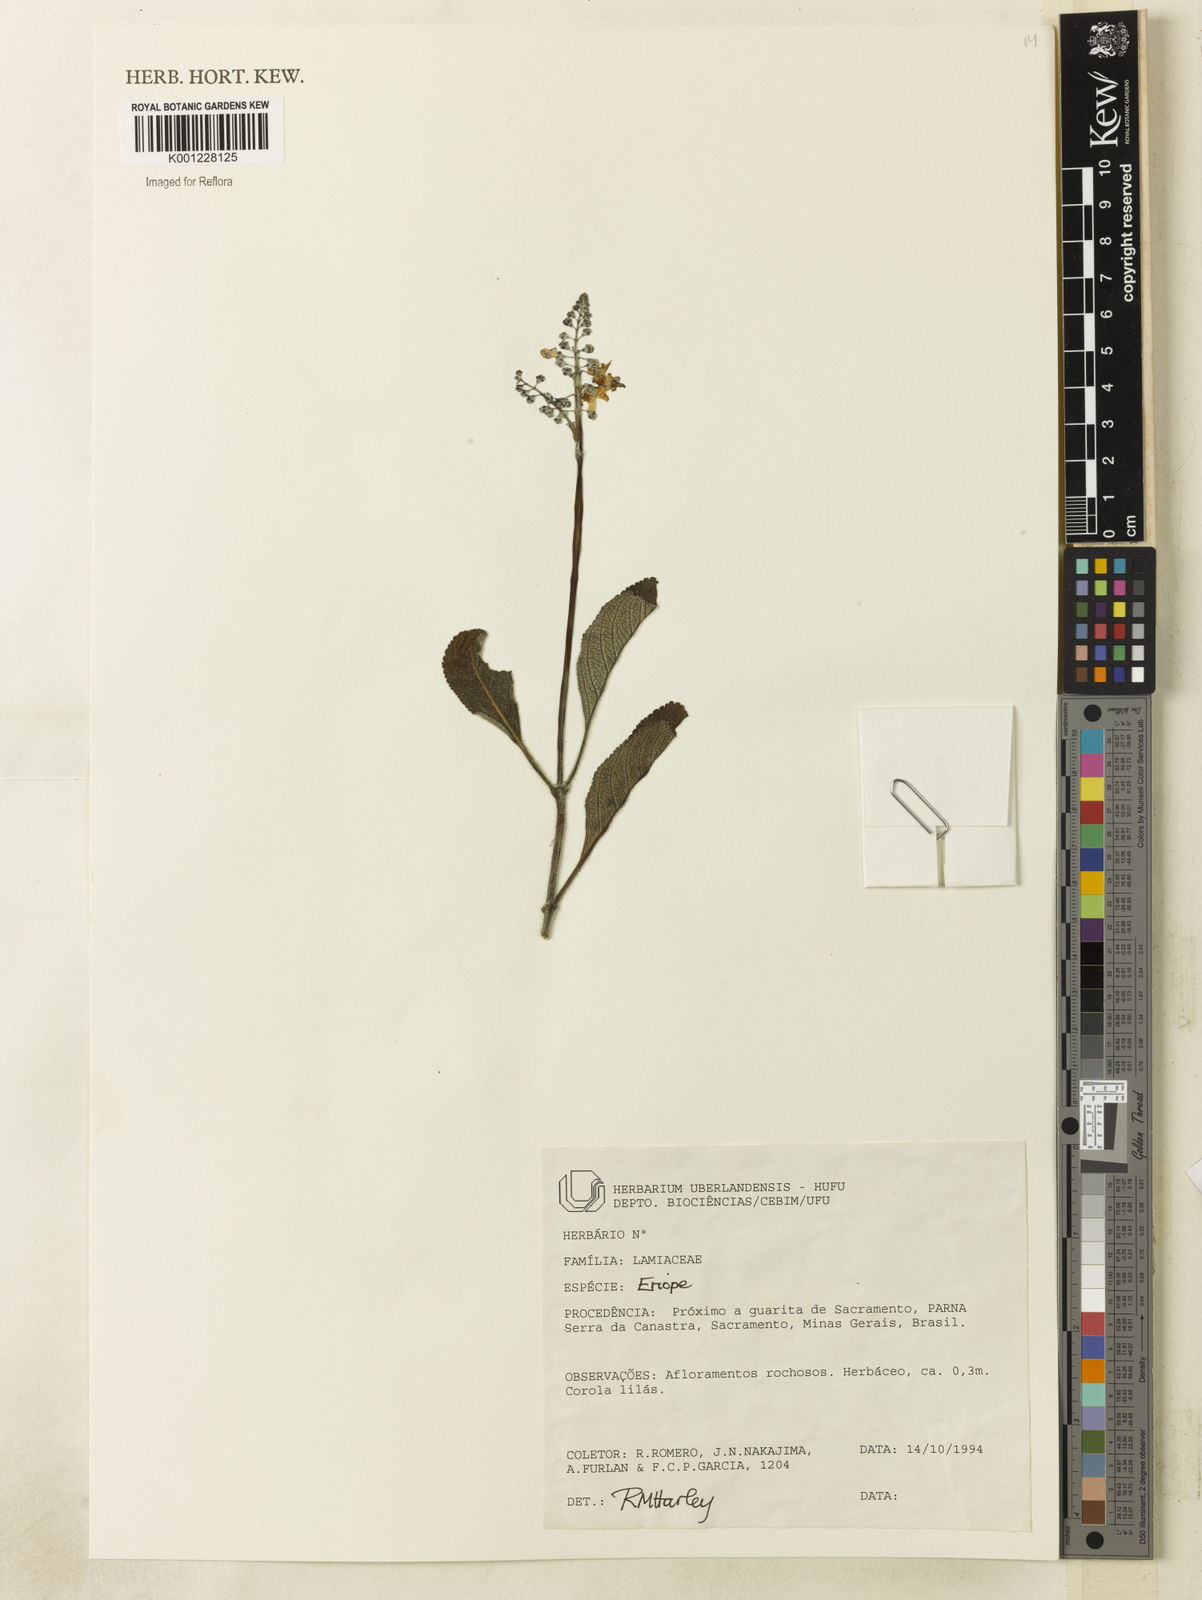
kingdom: Plantae
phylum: Tracheophyta
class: Magnoliopsida
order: Lamiales
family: Lamiaceae
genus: Eriope
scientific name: Eriope
